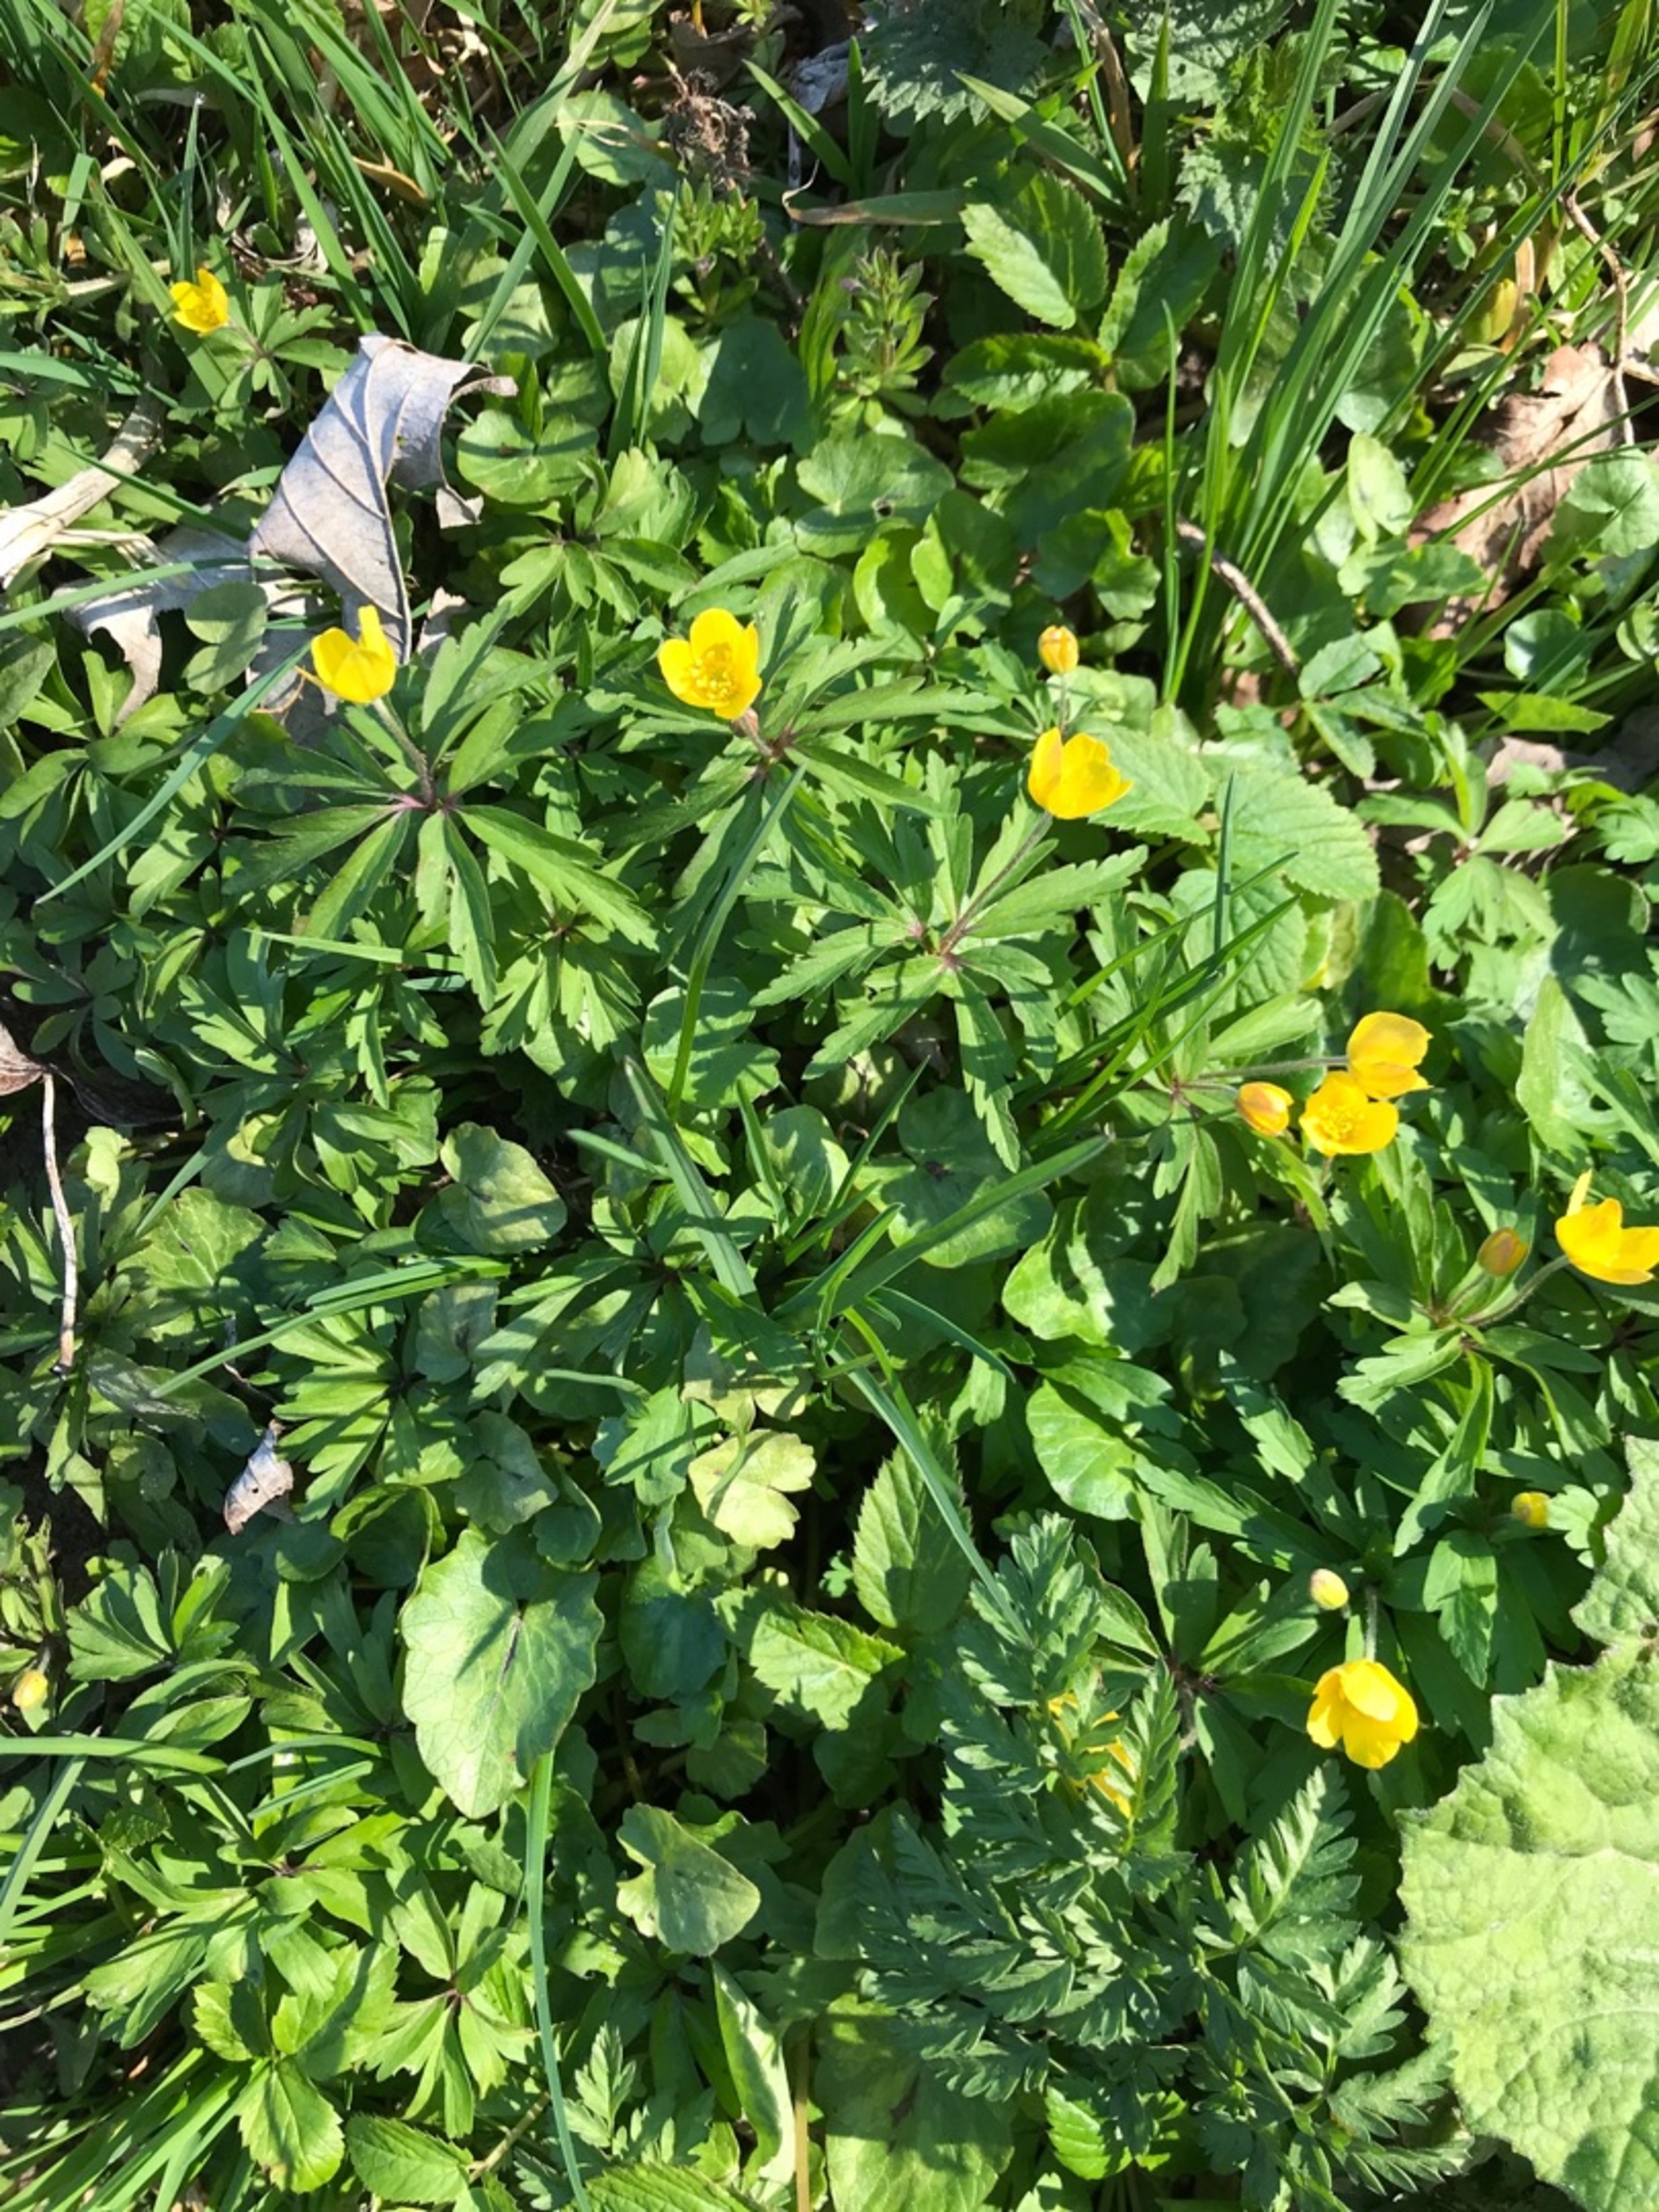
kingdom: Plantae
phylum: Tracheophyta
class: Magnoliopsida
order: Ranunculales
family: Ranunculaceae
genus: Anemone
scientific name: Anemone ranunculoides
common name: Gul anemone
